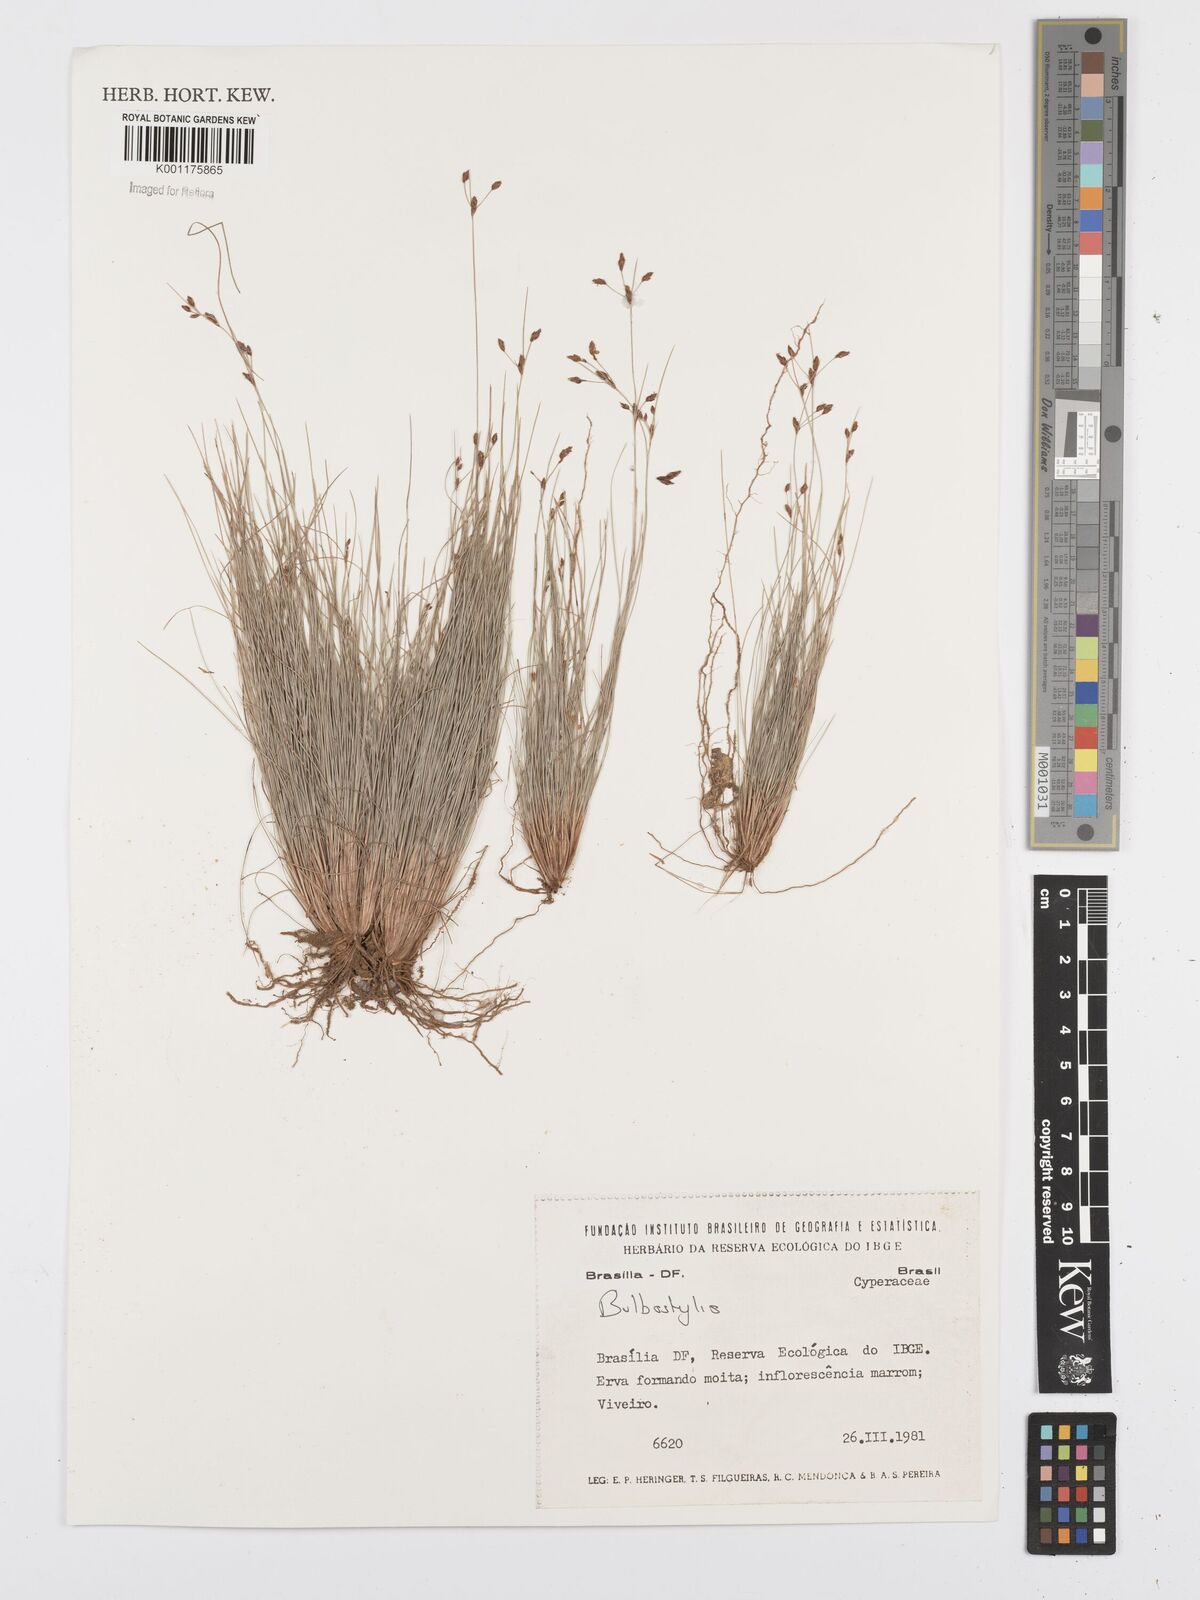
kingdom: Plantae
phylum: Tracheophyta
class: Liliopsida
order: Poales
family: Cyperaceae
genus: Bulbostylis
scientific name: Bulbostylis
